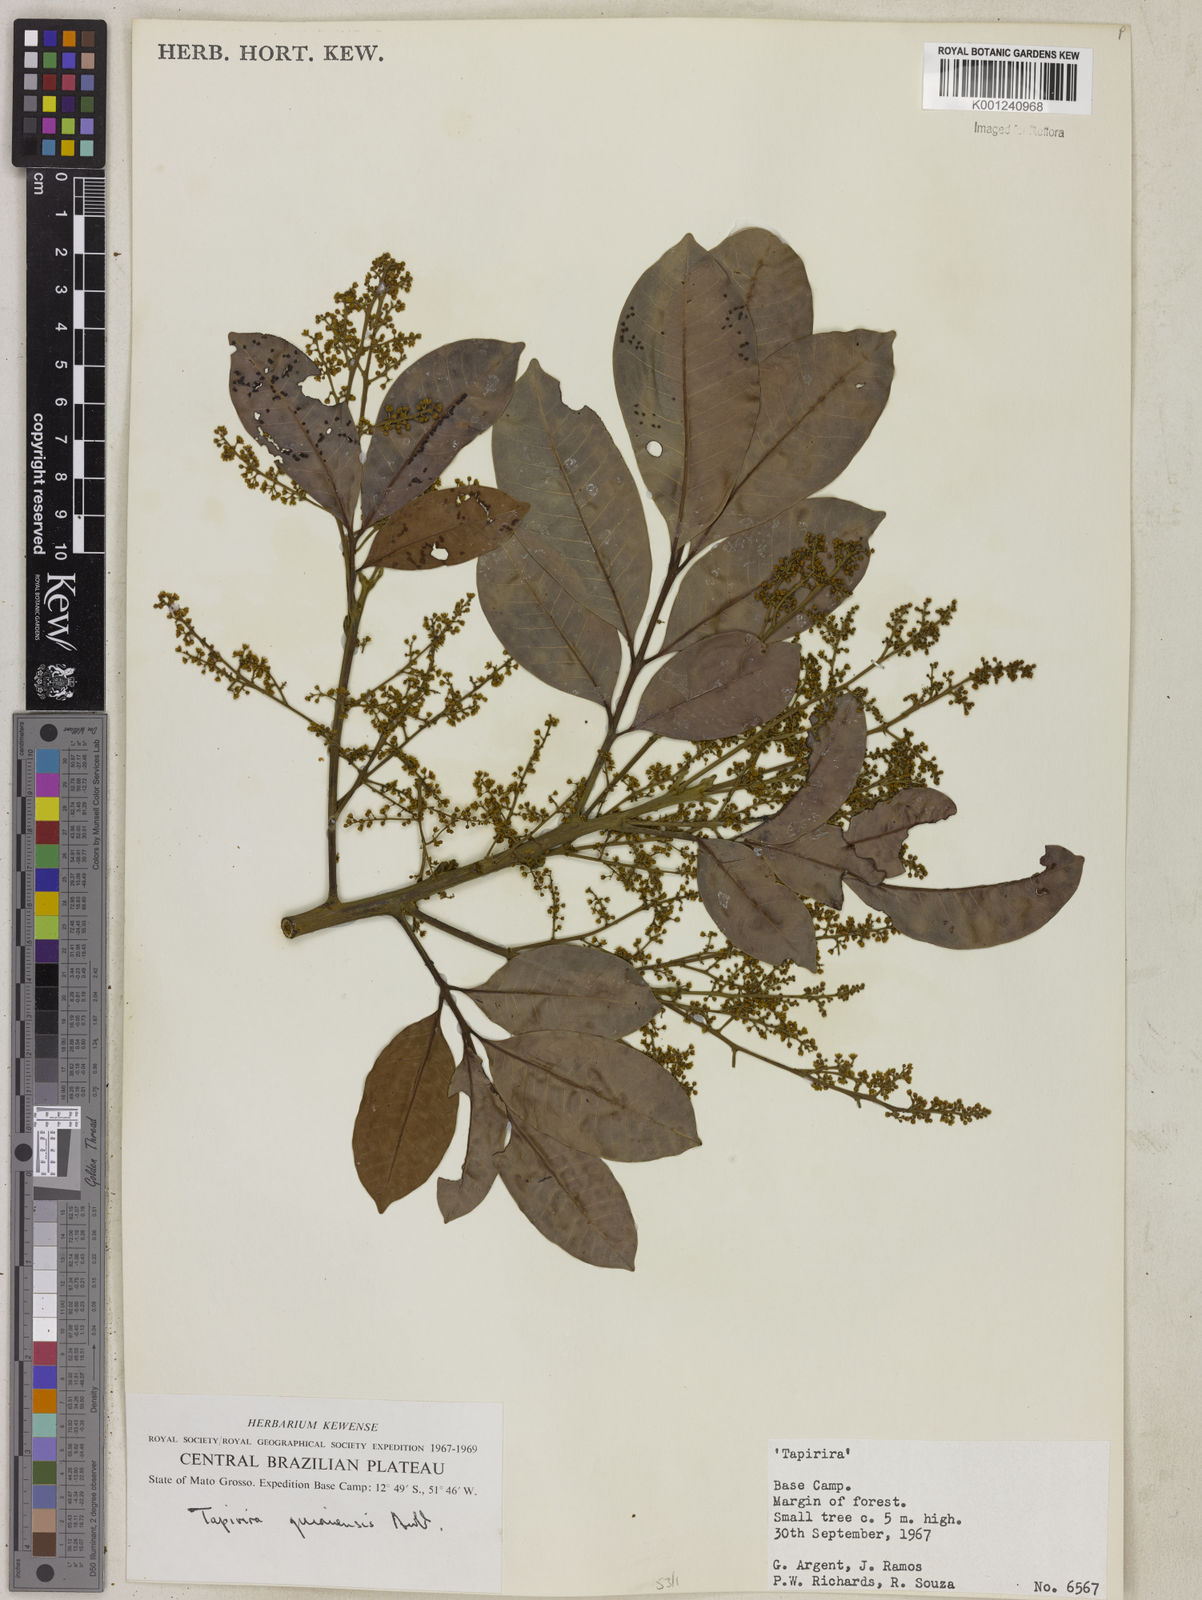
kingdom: Plantae
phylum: Tracheophyta
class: Magnoliopsida
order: Sapindales
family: Anacardiaceae
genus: Tapirira
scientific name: Tapirira guianensis
